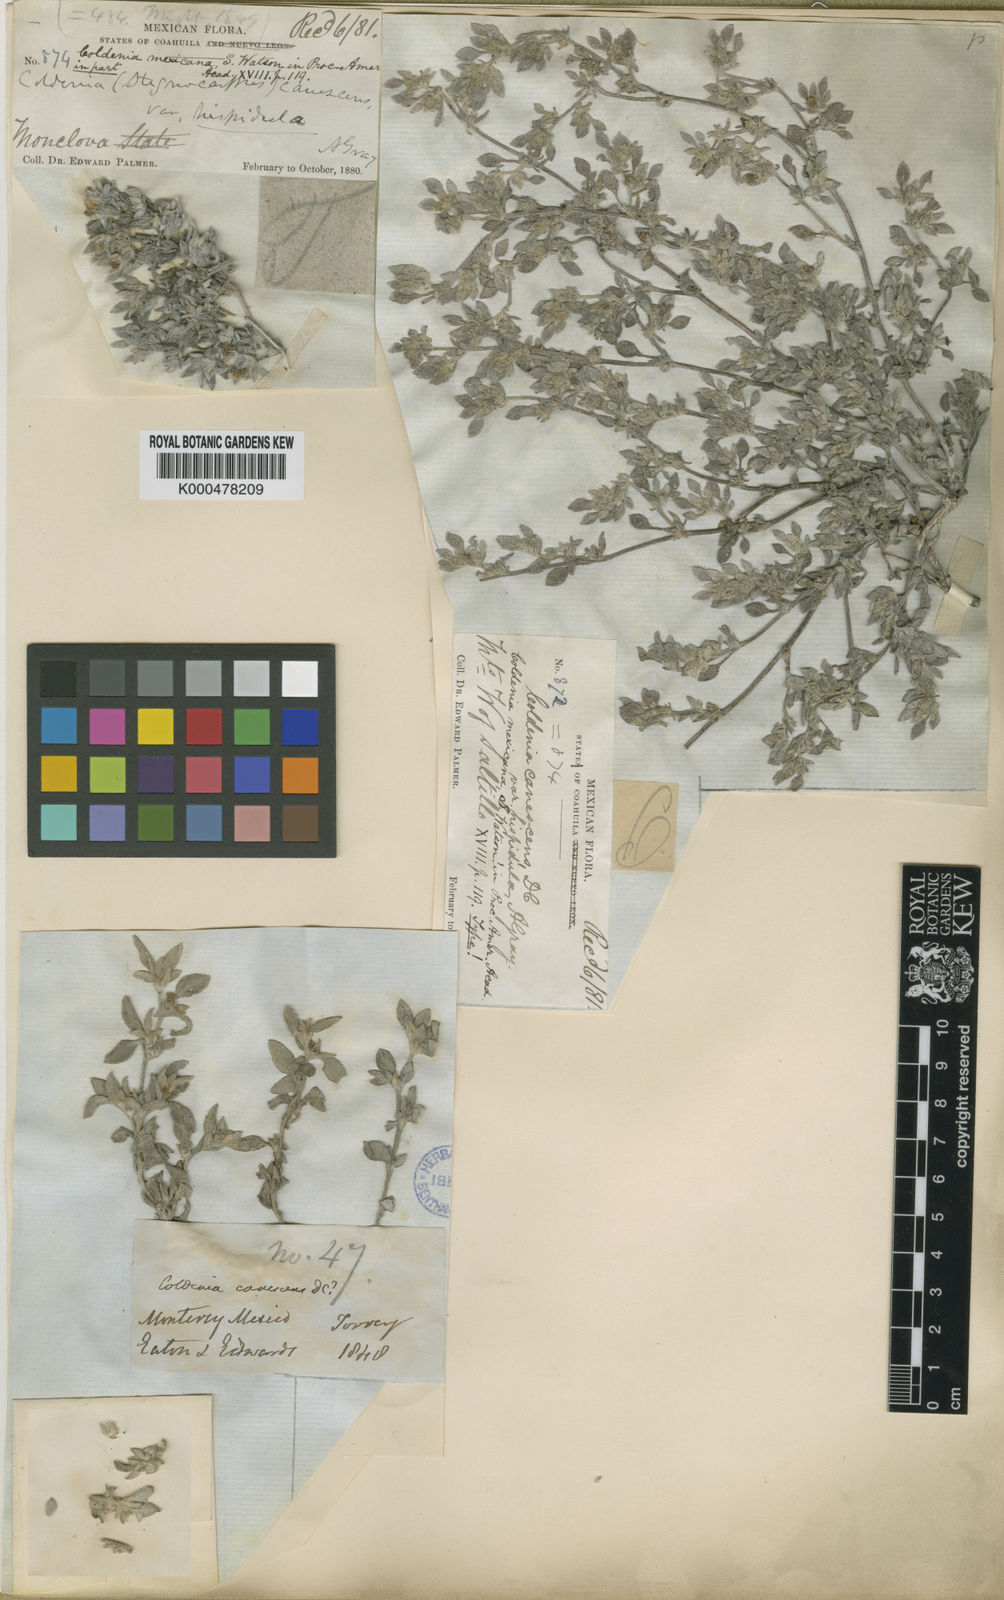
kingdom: Plantae
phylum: Tracheophyta
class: Magnoliopsida
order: Boraginales
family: Ehretiaceae
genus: Tiquilia
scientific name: Tiquilia canescens
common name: Hairy tiquilia
